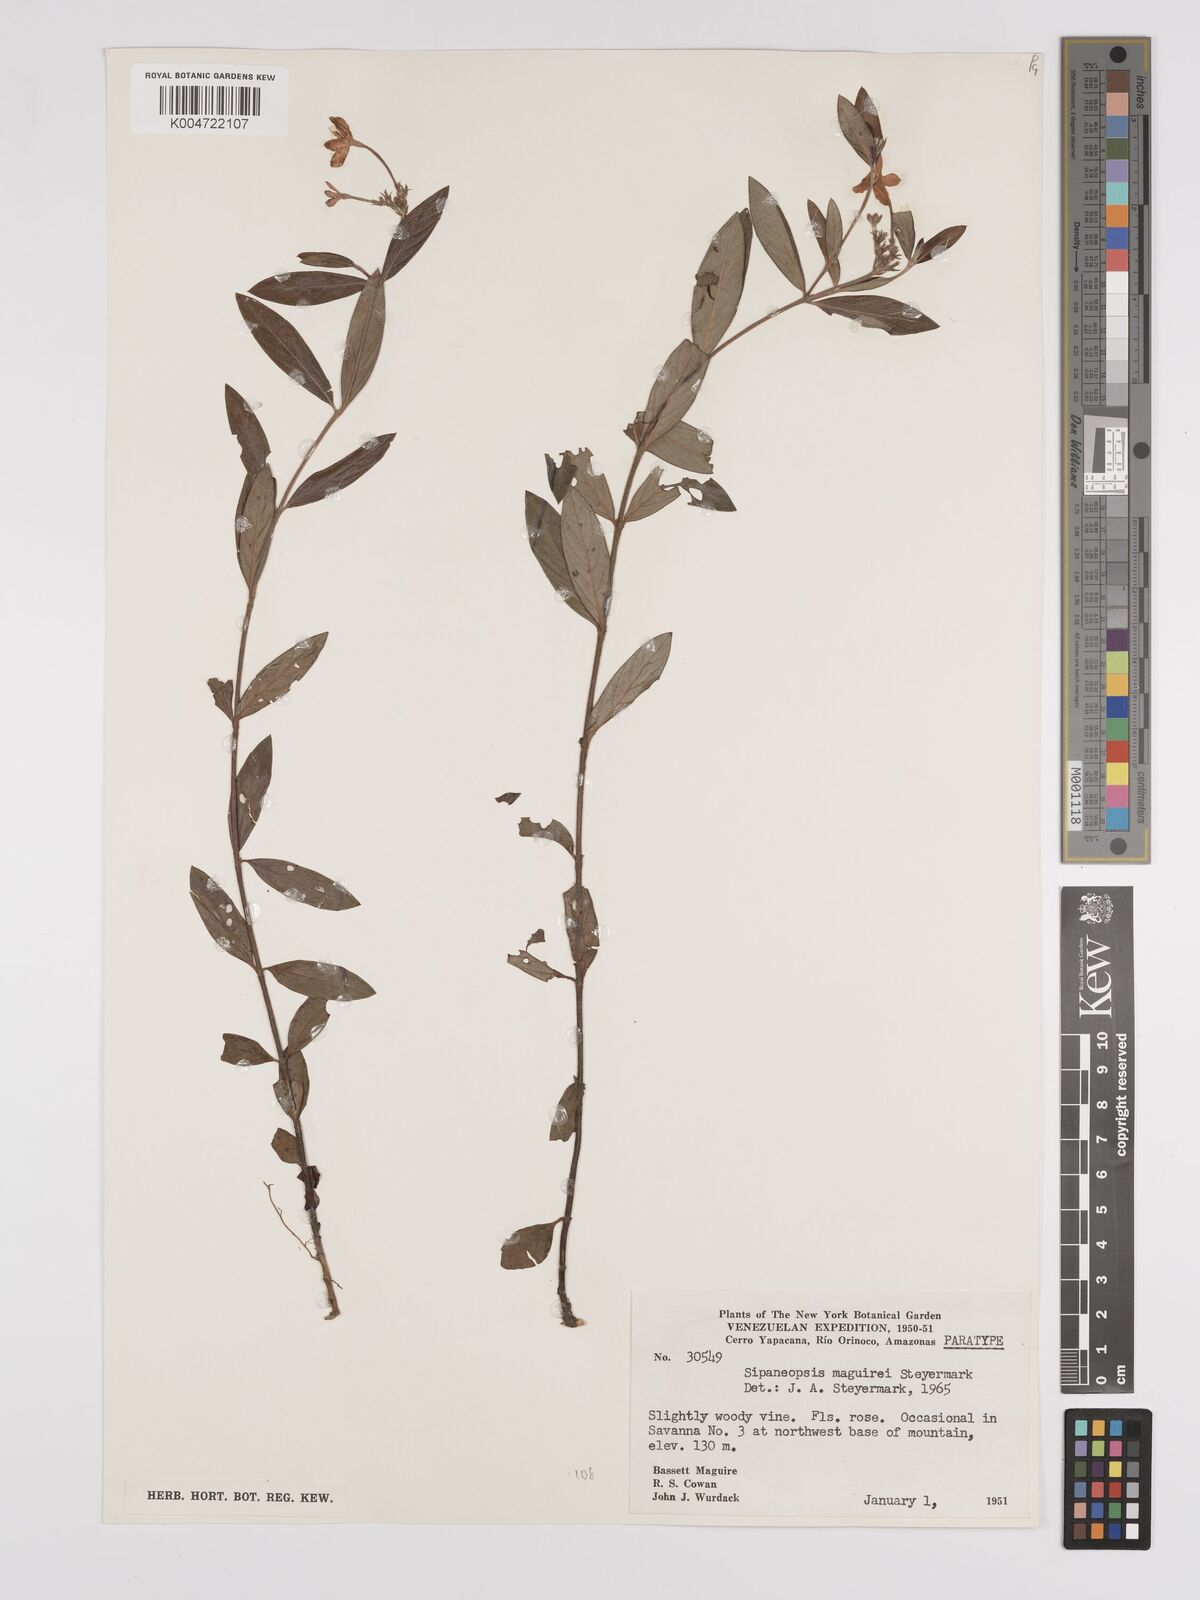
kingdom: Plantae
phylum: Tracheophyta
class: Magnoliopsida
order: Gentianales
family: Rubiaceae
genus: Sipaneopsis
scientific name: Sipaneopsis maguirei
